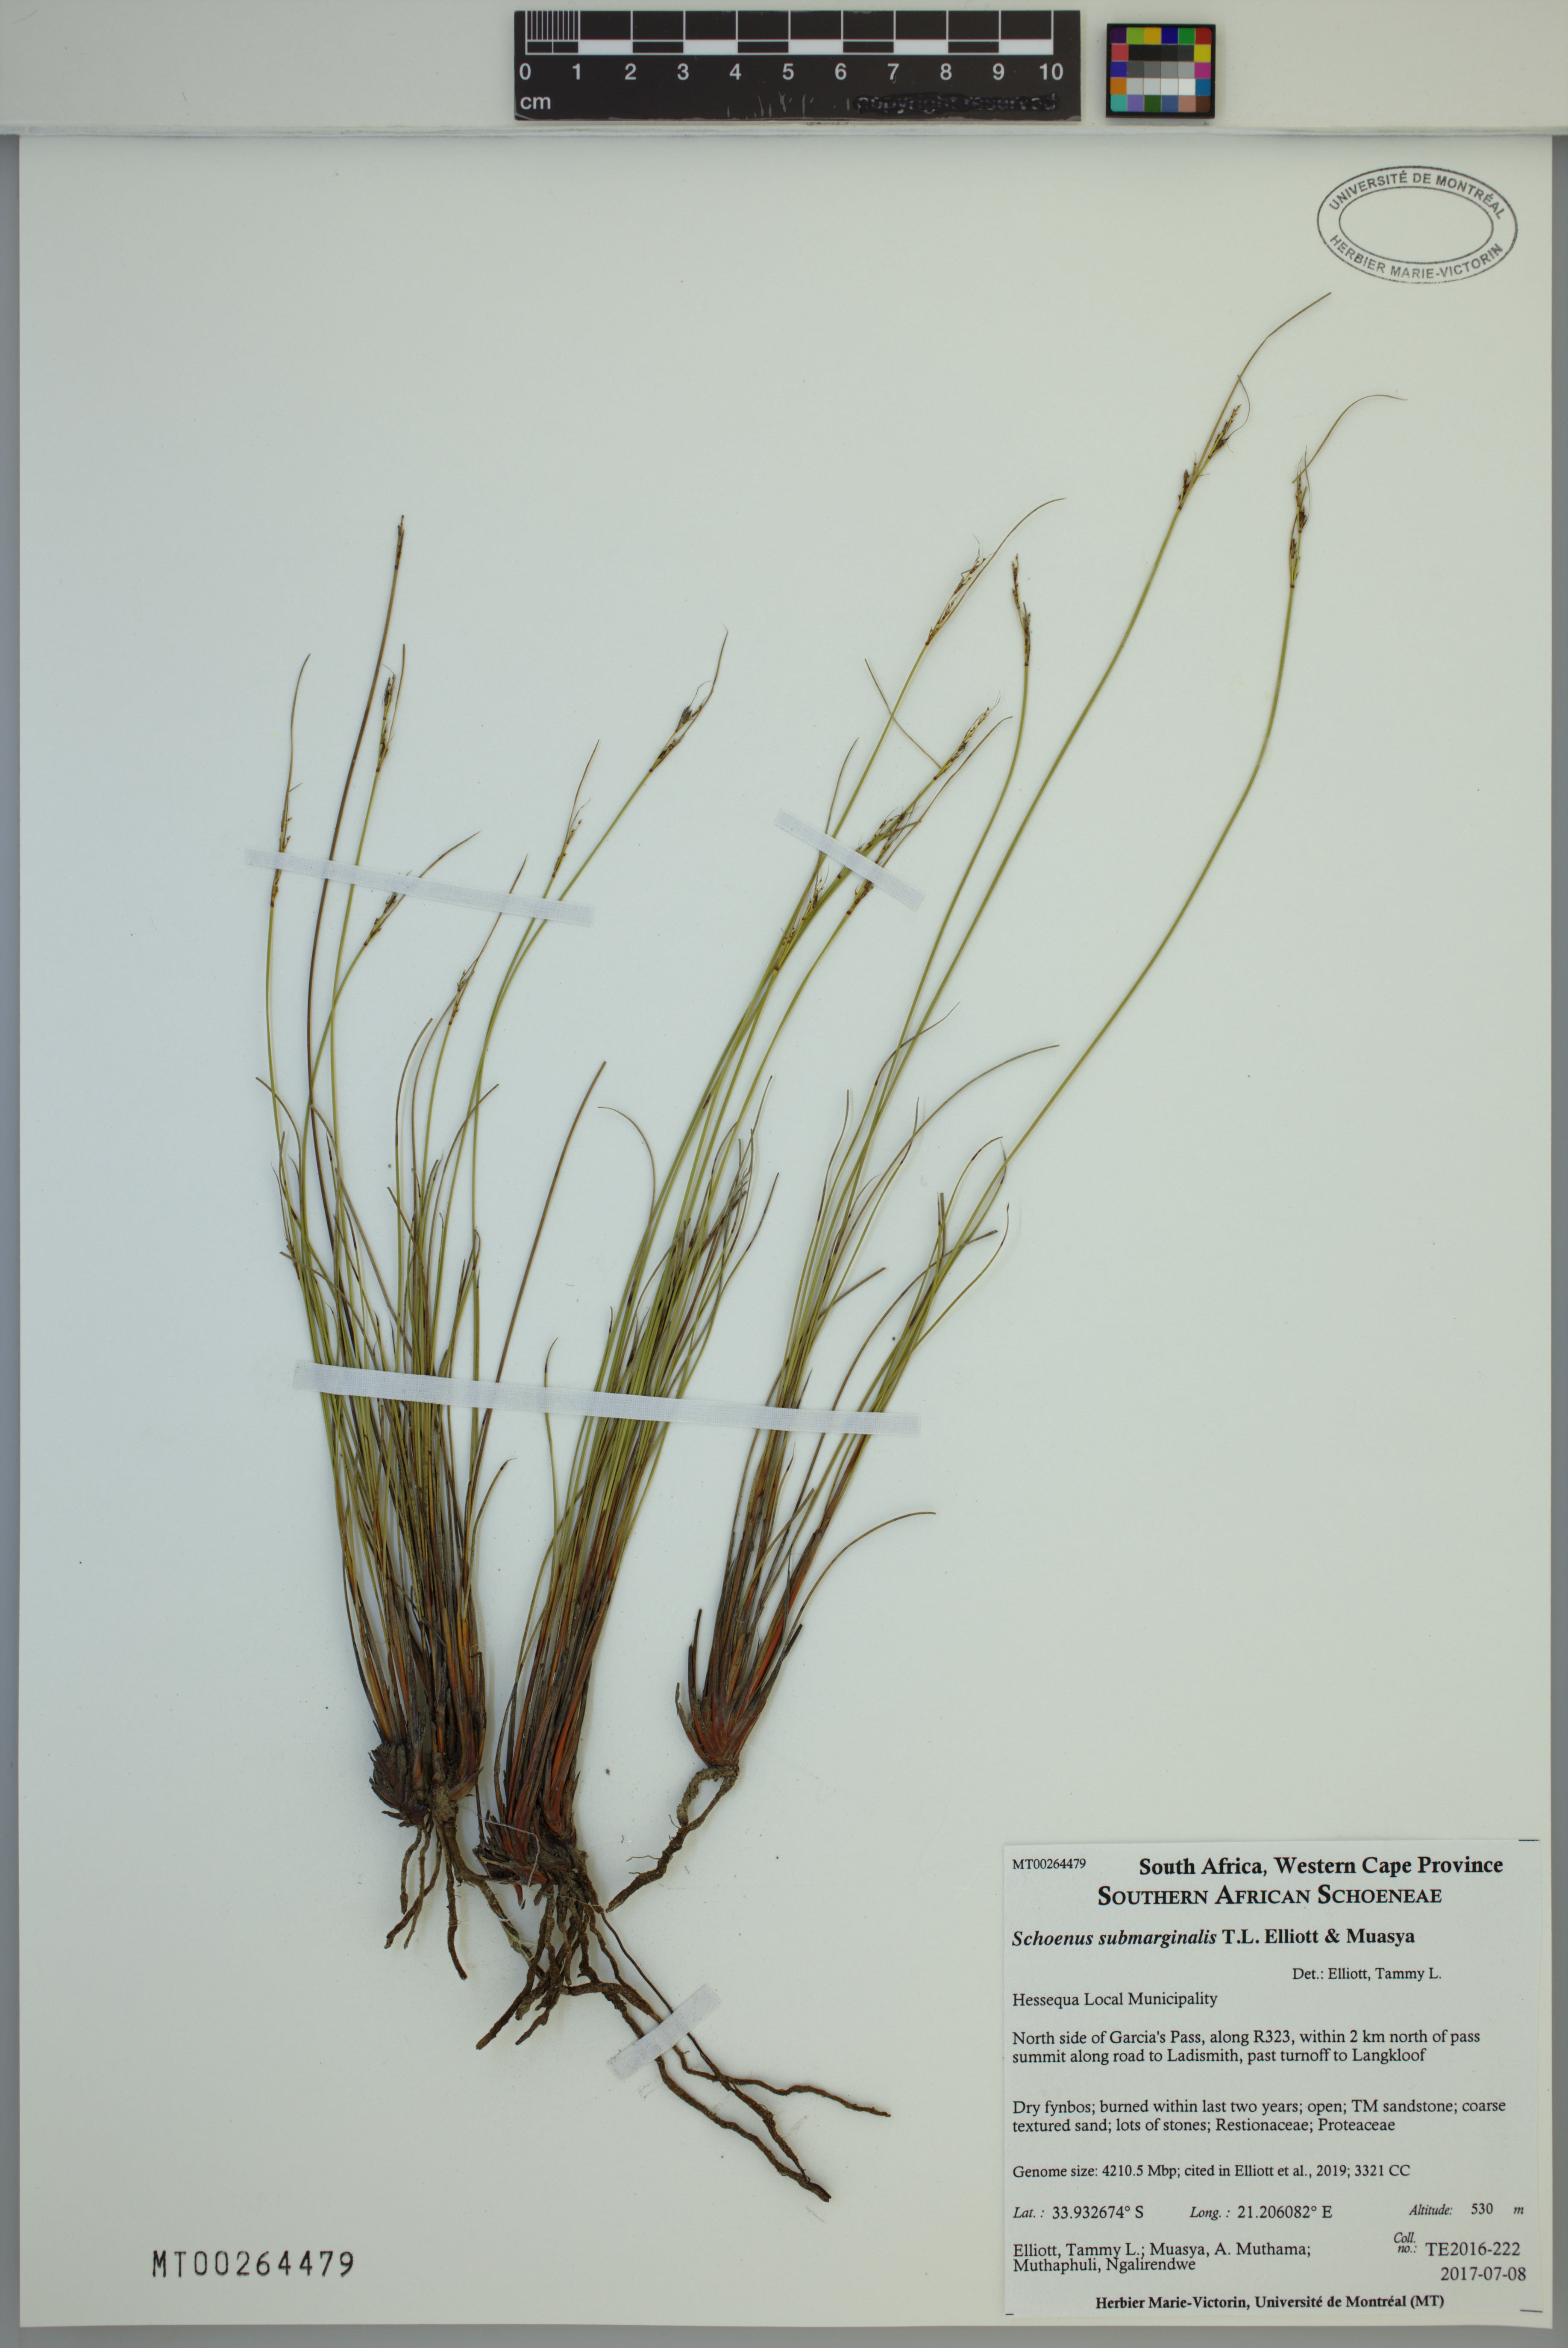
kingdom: Plantae
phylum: Tracheophyta
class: Liliopsida
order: Poales
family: Cyperaceae
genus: Schoenus
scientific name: Schoenus submarginalis
